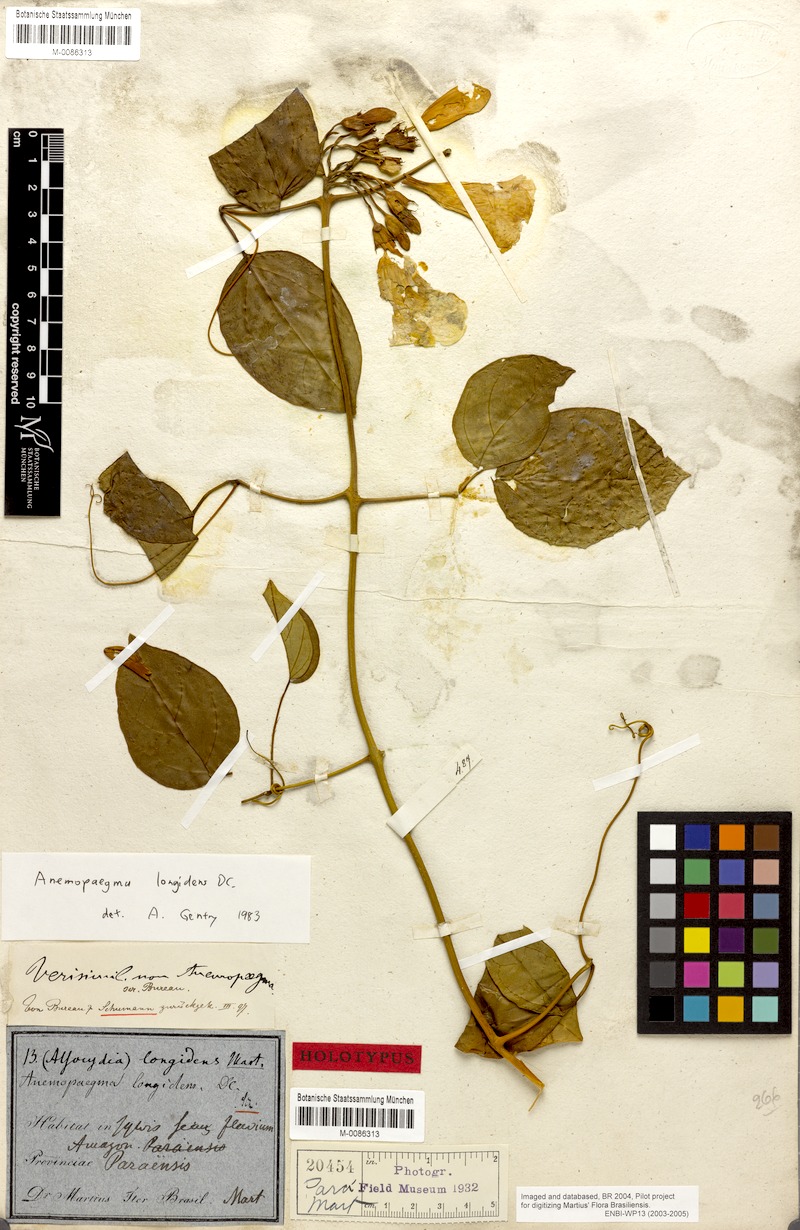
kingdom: Plantae
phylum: Tracheophyta
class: Magnoliopsida
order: Lamiales
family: Bignoniaceae
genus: Anemopaegma
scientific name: Anemopaegma longidens
